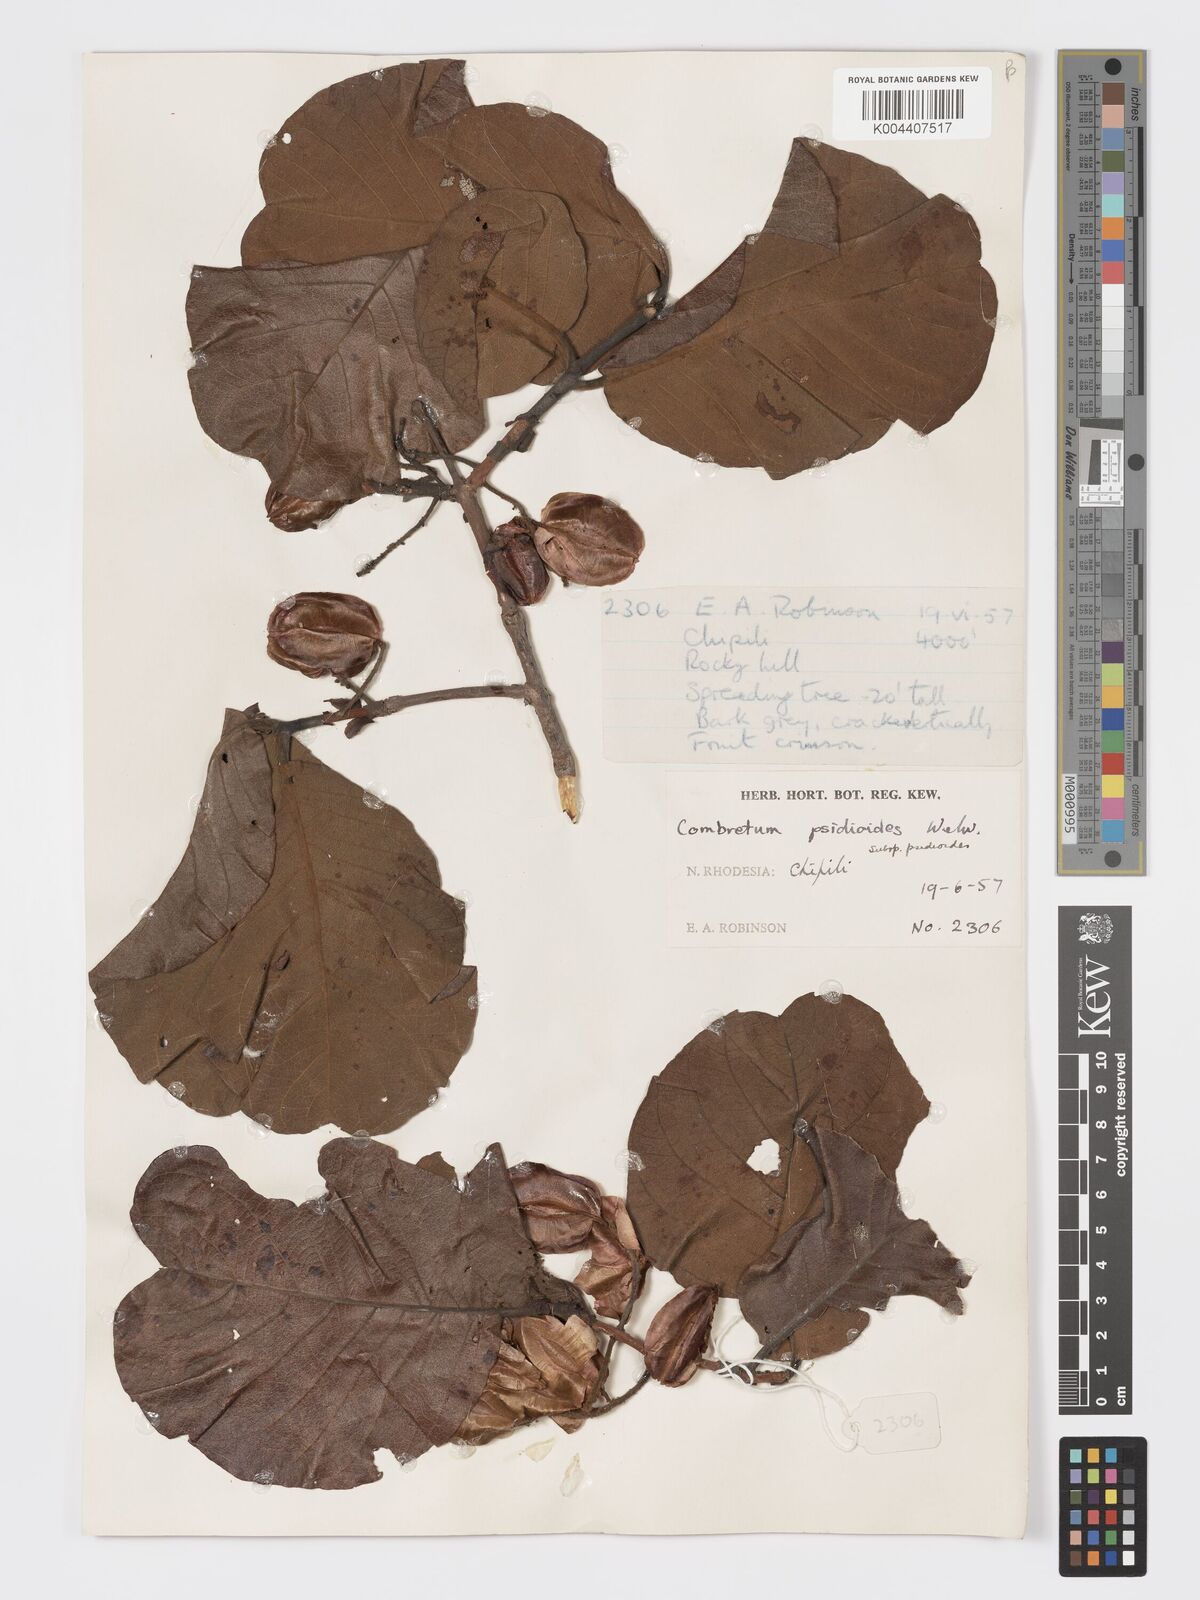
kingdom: Plantae
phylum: Tracheophyta
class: Magnoliopsida
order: Myrtales
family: Combretaceae
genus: Combretum
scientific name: Combretum psidioides
